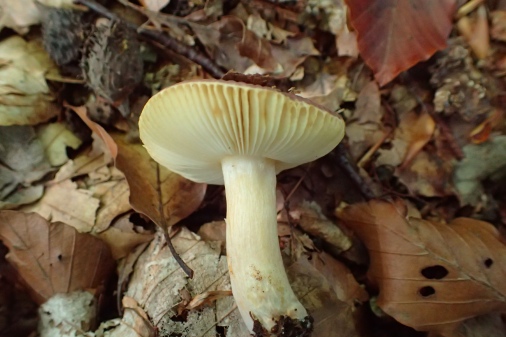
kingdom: Fungi
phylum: Basidiomycota
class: Agaricomycetes
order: Russulales
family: Russulaceae
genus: Russula
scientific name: Russula puellaris
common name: gulstokket skørhat
